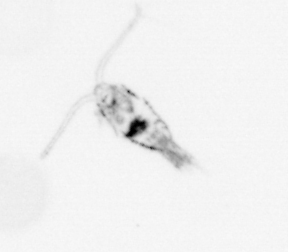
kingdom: Animalia
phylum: Arthropoda
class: Copepoda
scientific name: Copepoda
